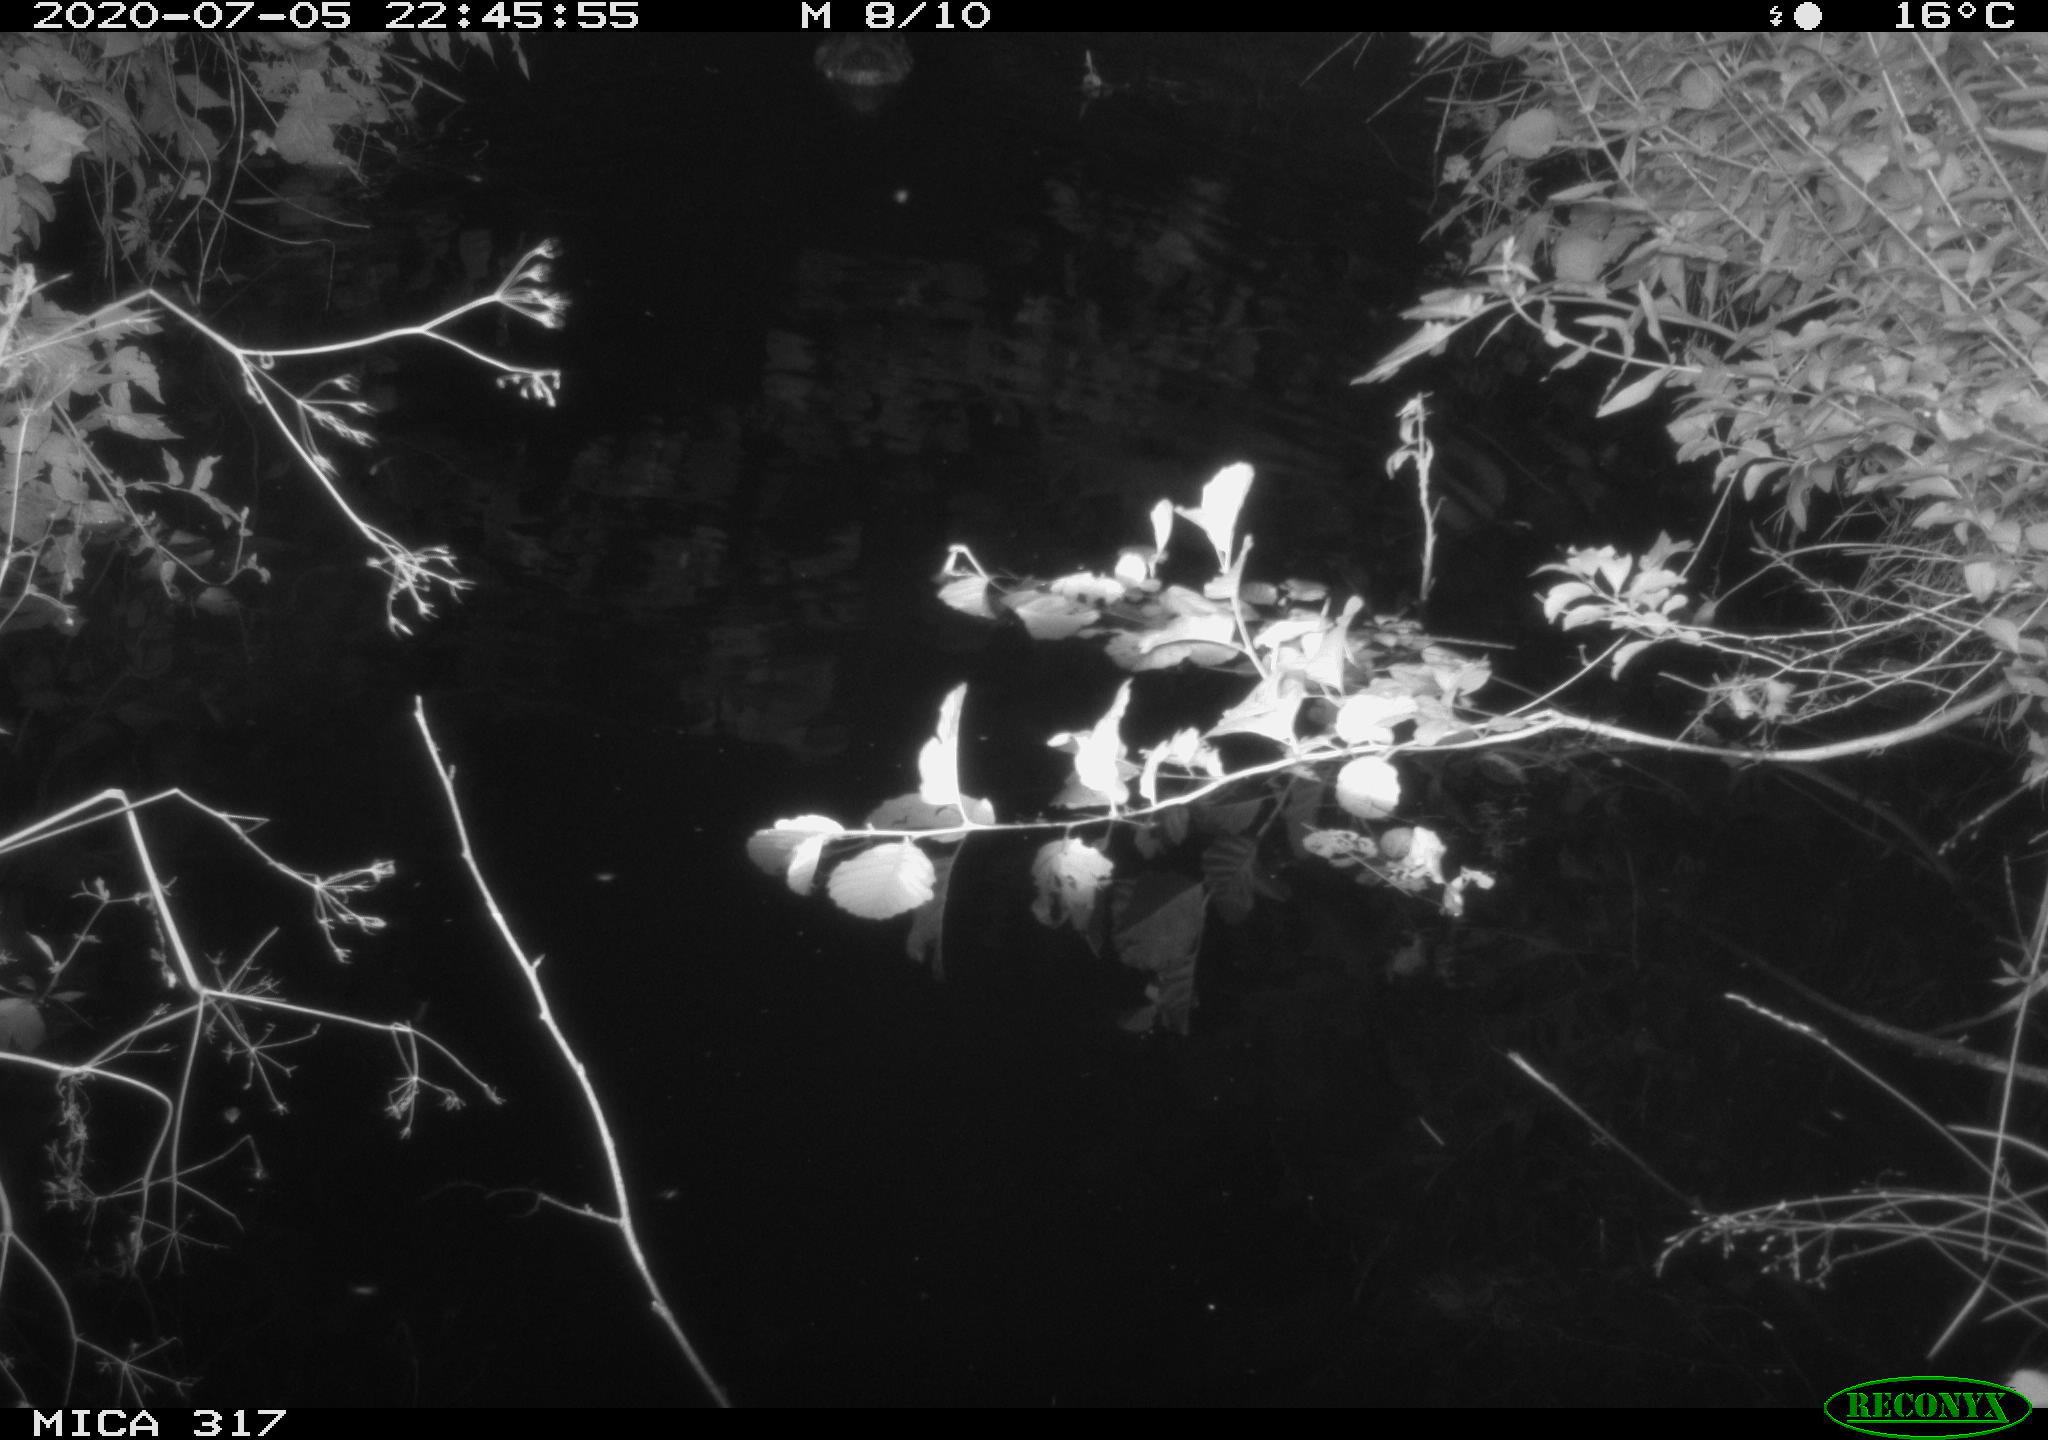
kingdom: Animalia
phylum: Chordata
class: Aves
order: Anseriformes
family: Anatidae
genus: Anas
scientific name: Anas platyrhynchos
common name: Mallard
